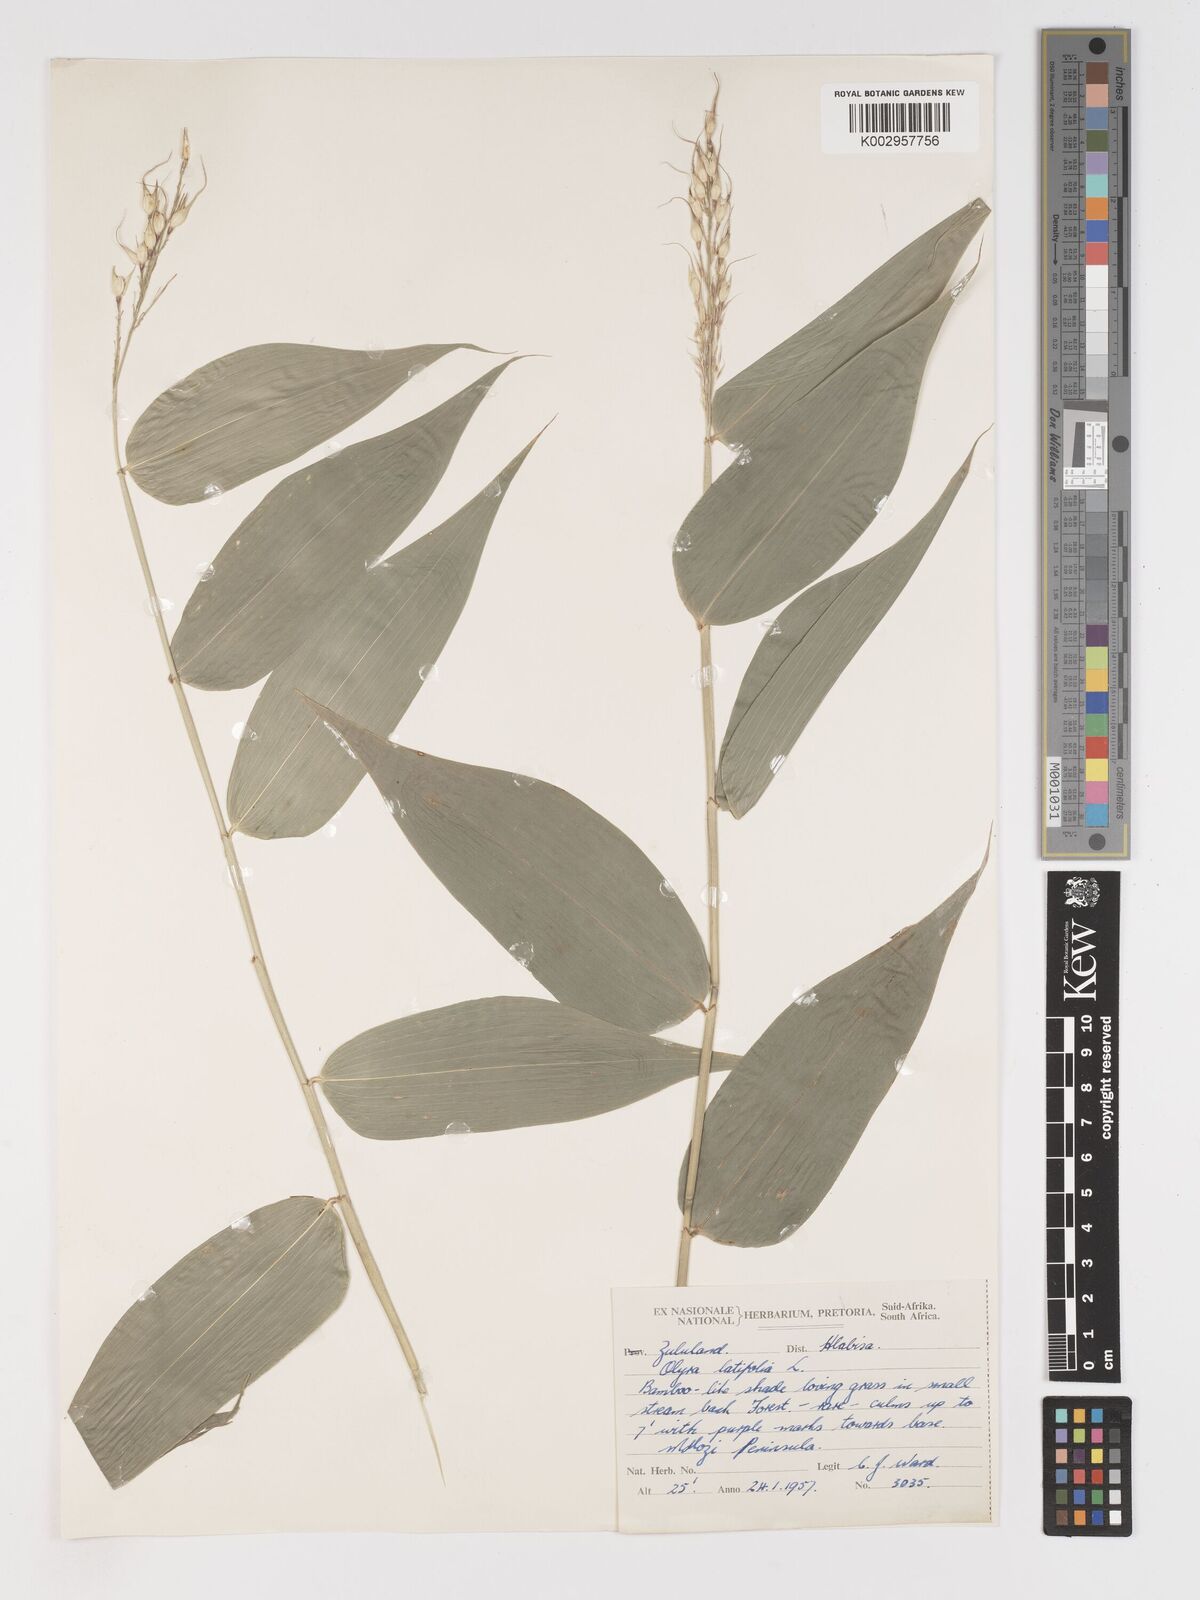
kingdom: Plantae
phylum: Tracheophyta
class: Liliopsida
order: Poales
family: Poaceae
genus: Olyra
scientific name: Olyra latifolia
